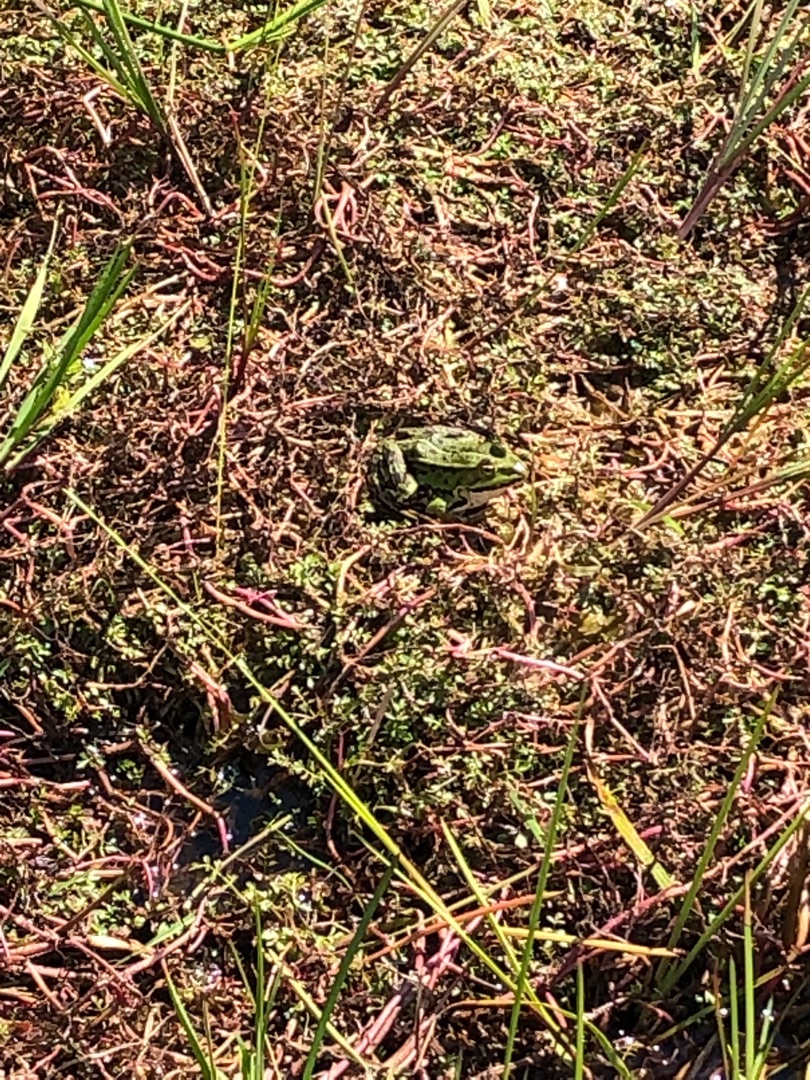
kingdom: Animalia
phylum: Chordata
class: Amphibia
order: Anura
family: Ranidae
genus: Pelophylax
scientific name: Pelophylax lessonae
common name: Grøn frø
